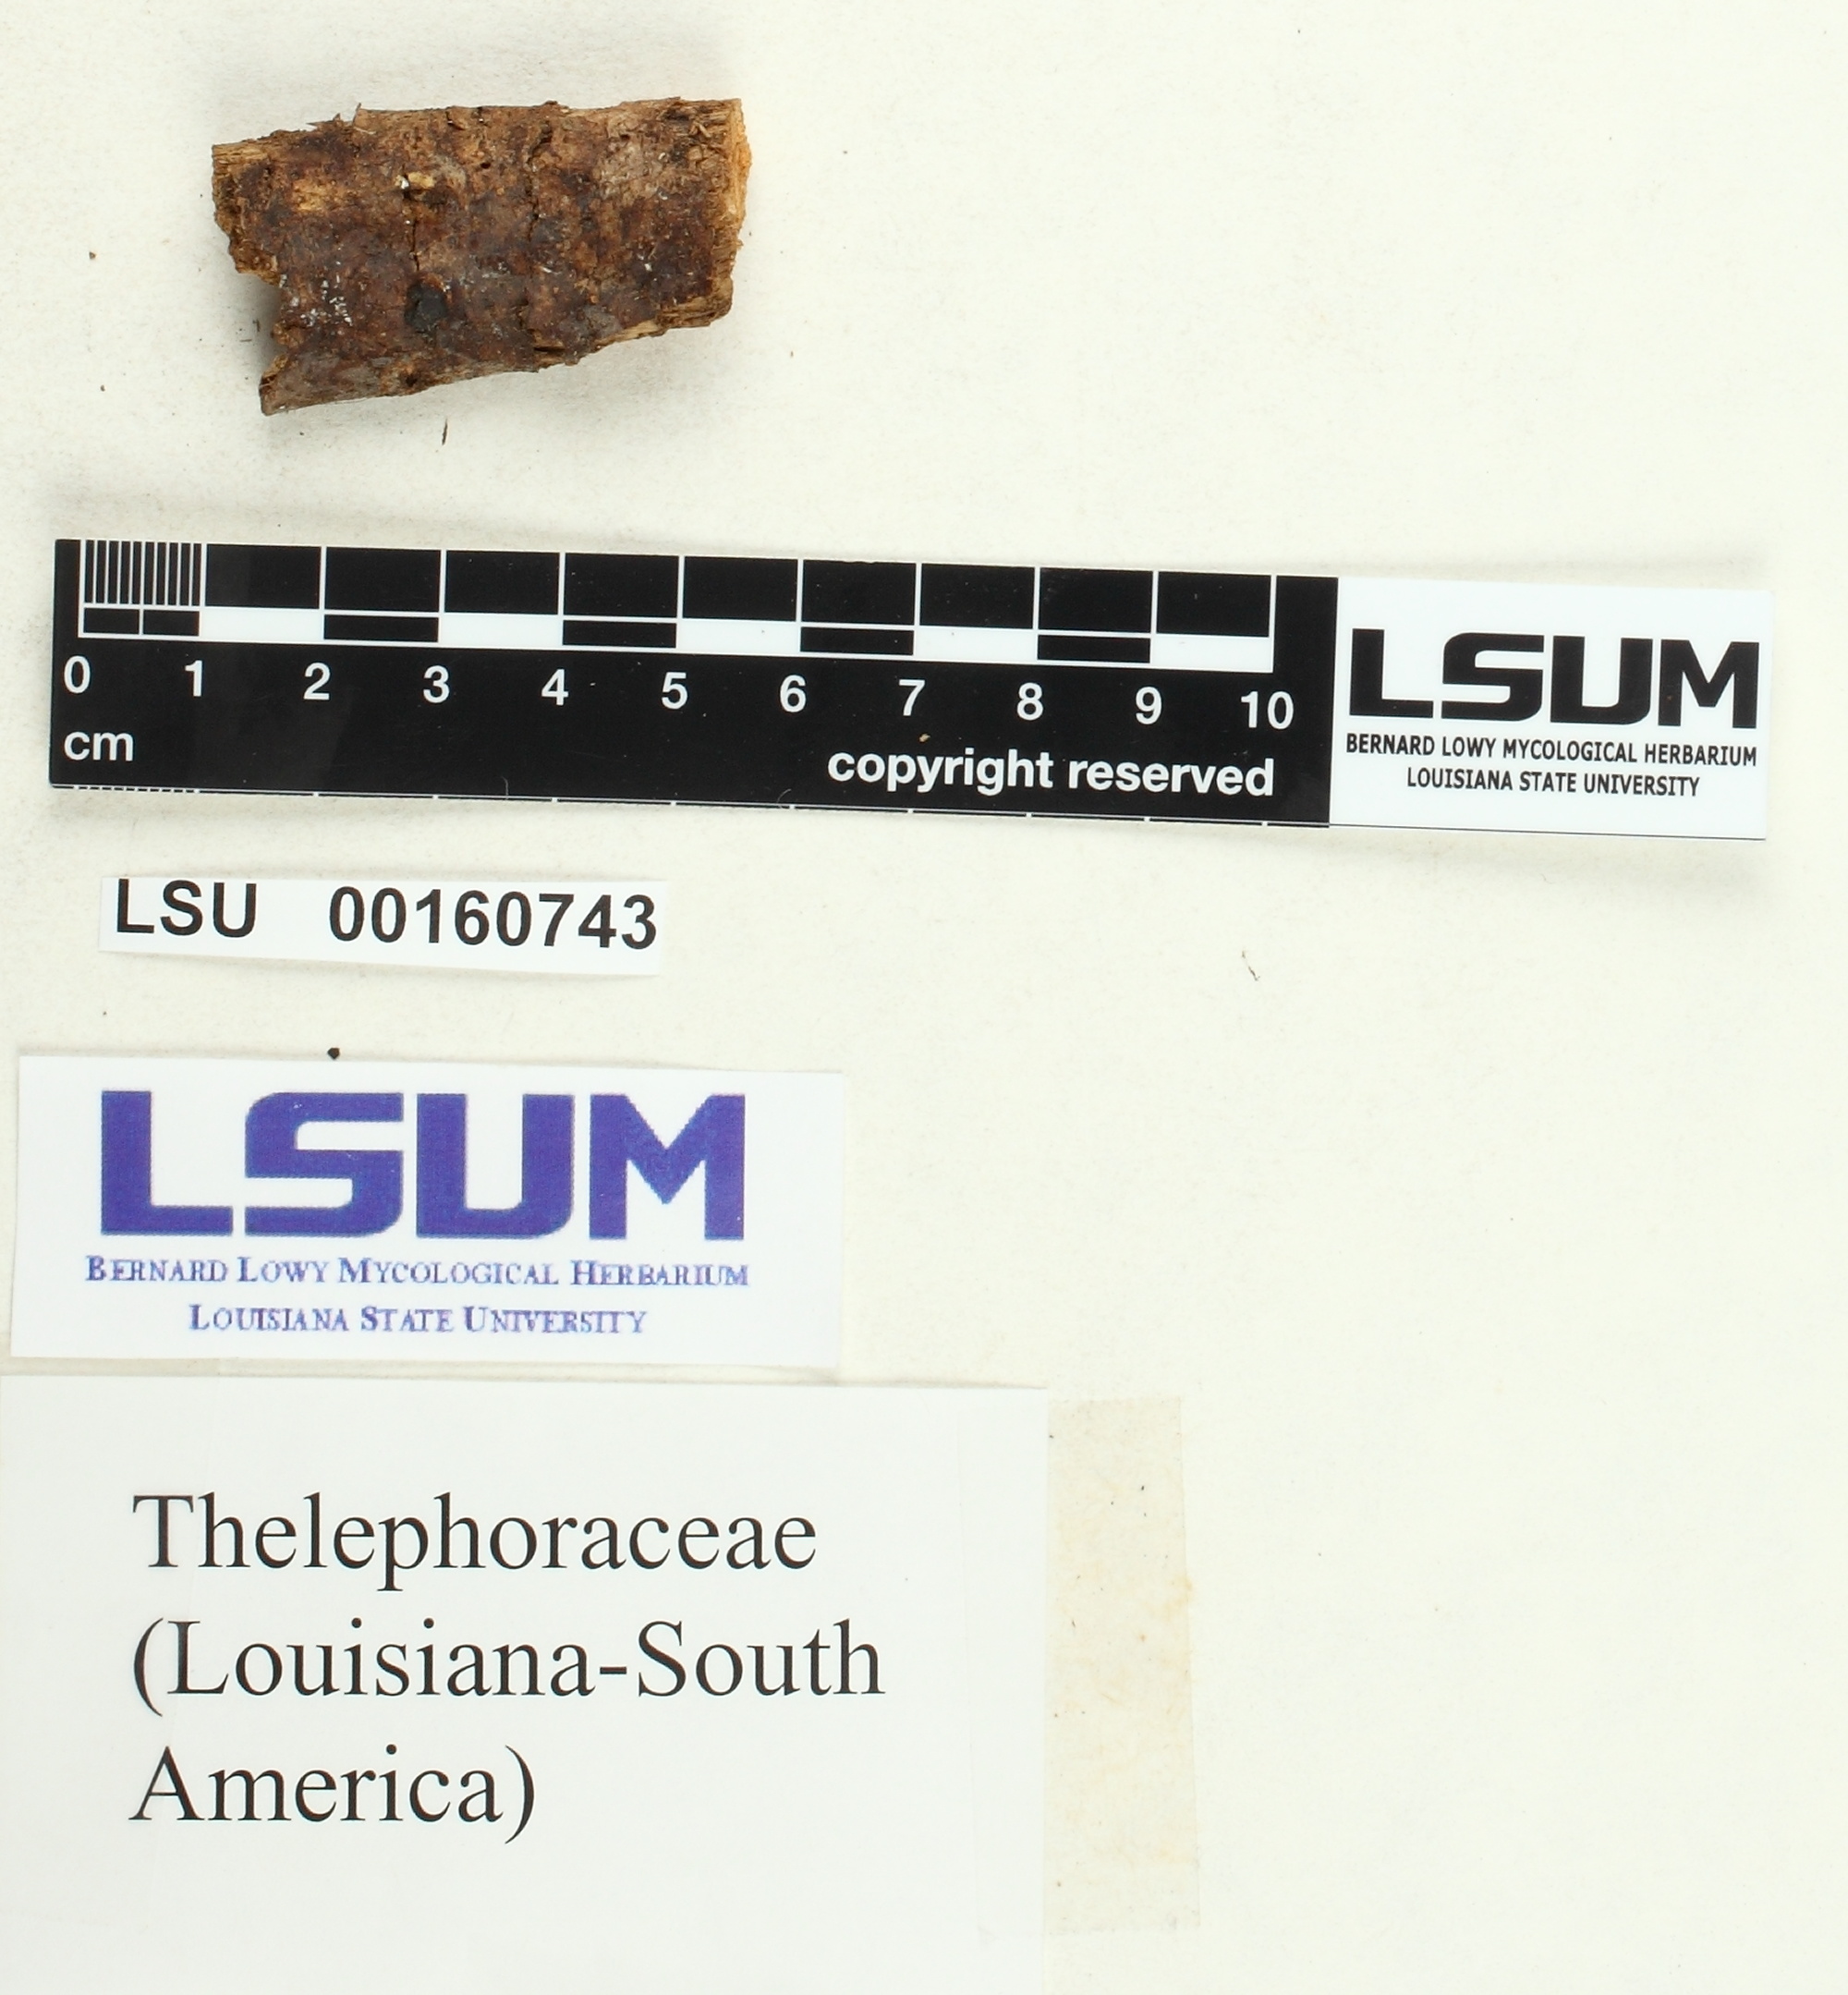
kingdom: Fungi
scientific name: Fungi
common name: Fungi
